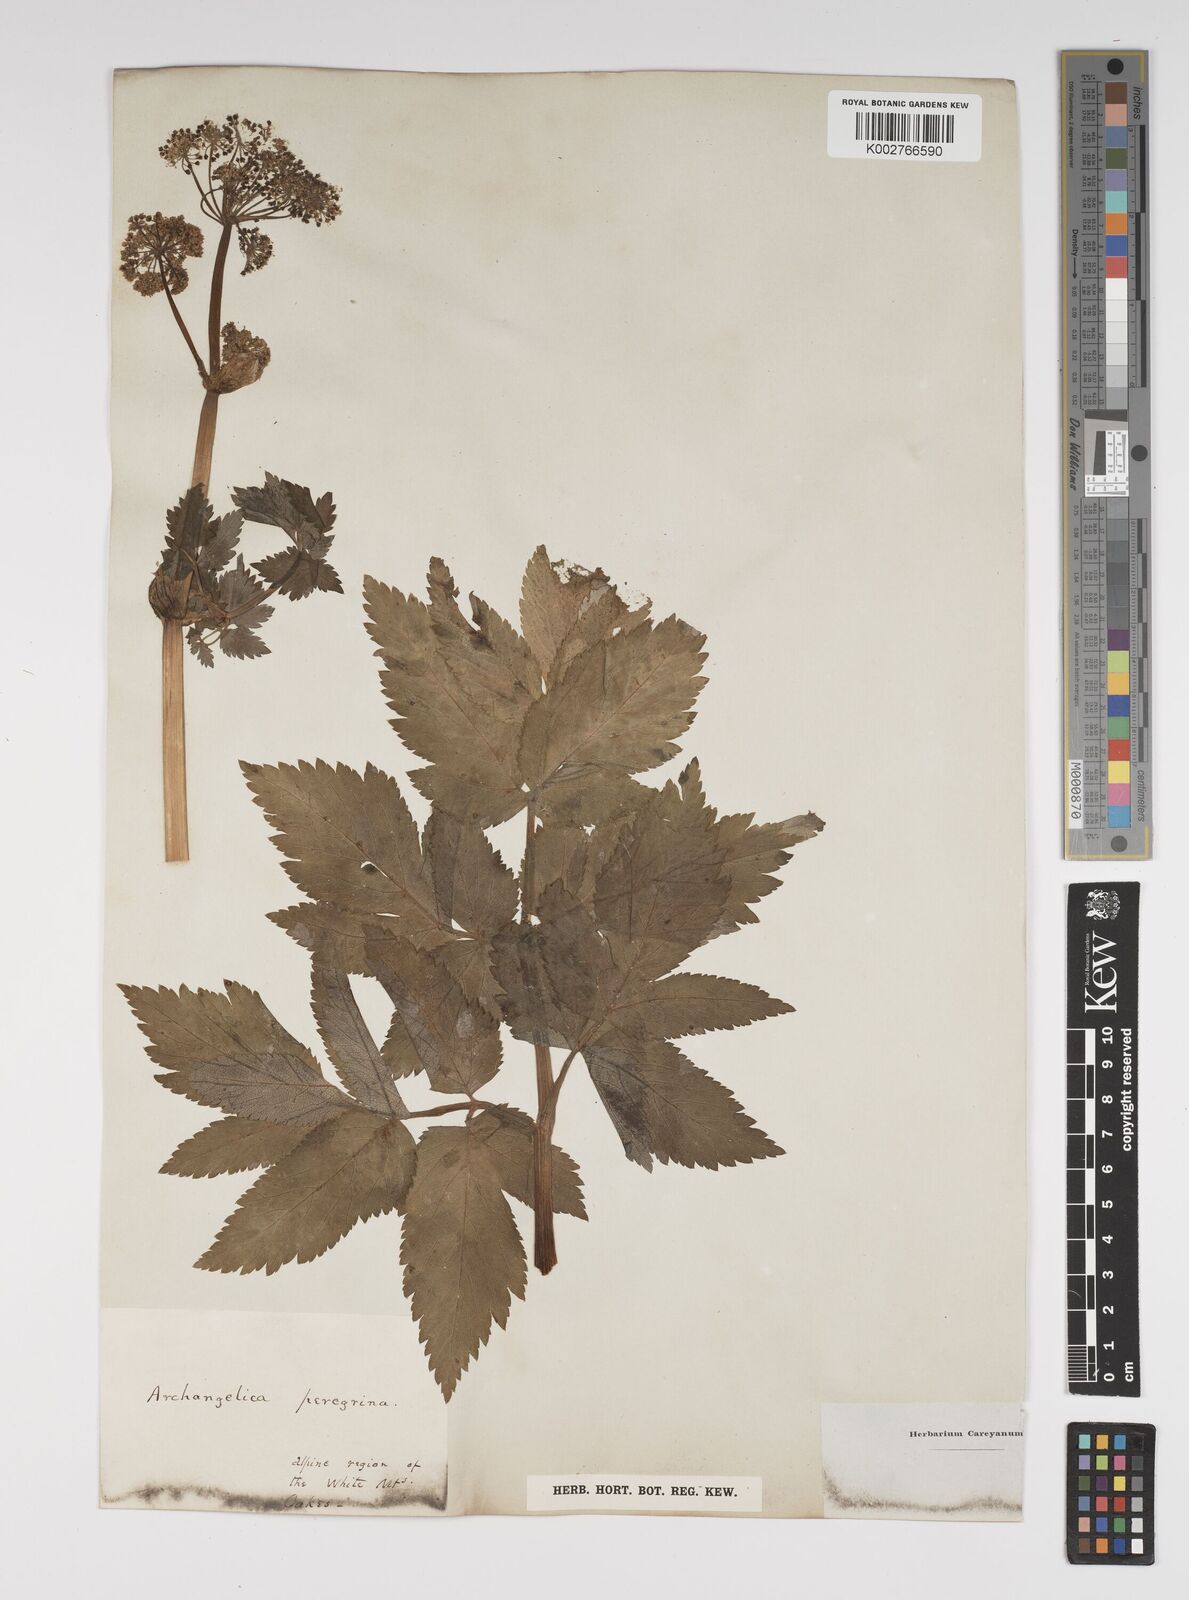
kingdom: Plantae
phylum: Tracheophyta
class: Magnoliopsida
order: Apiales
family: Apiaceae
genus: Angelica
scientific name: Angelica lucida
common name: Seabeach angelica
